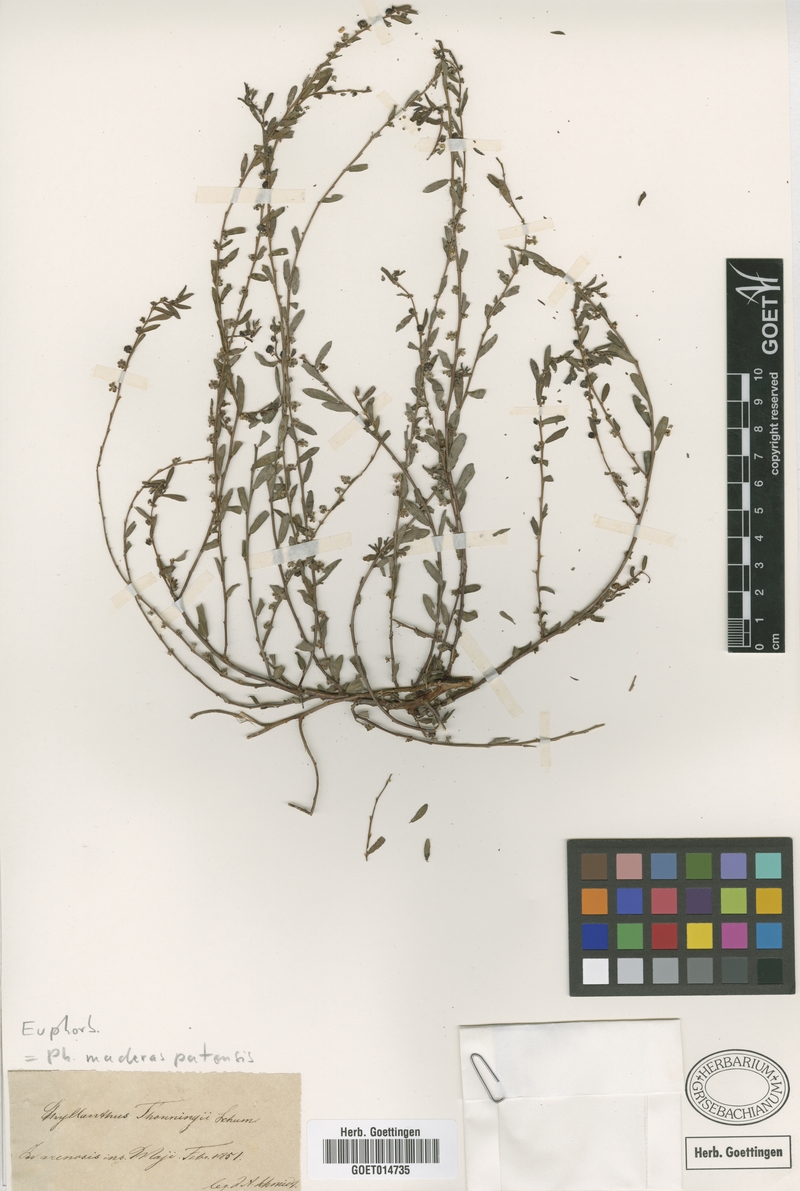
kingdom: Plantae
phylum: Tracheophyta
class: Magnoliopsida
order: Malpighiales
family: Phyllanthaceae
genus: Phyllanthus
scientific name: Phyllanthus maderaspatensis
